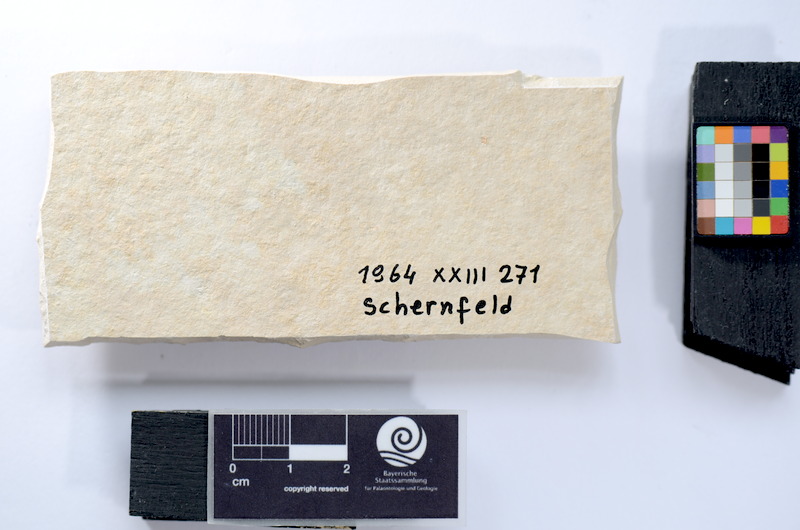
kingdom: Animalia
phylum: Chordata
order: Salmoniformes
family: Orthogonikleithridae
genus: Leptolepides
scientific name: Leptolepides
